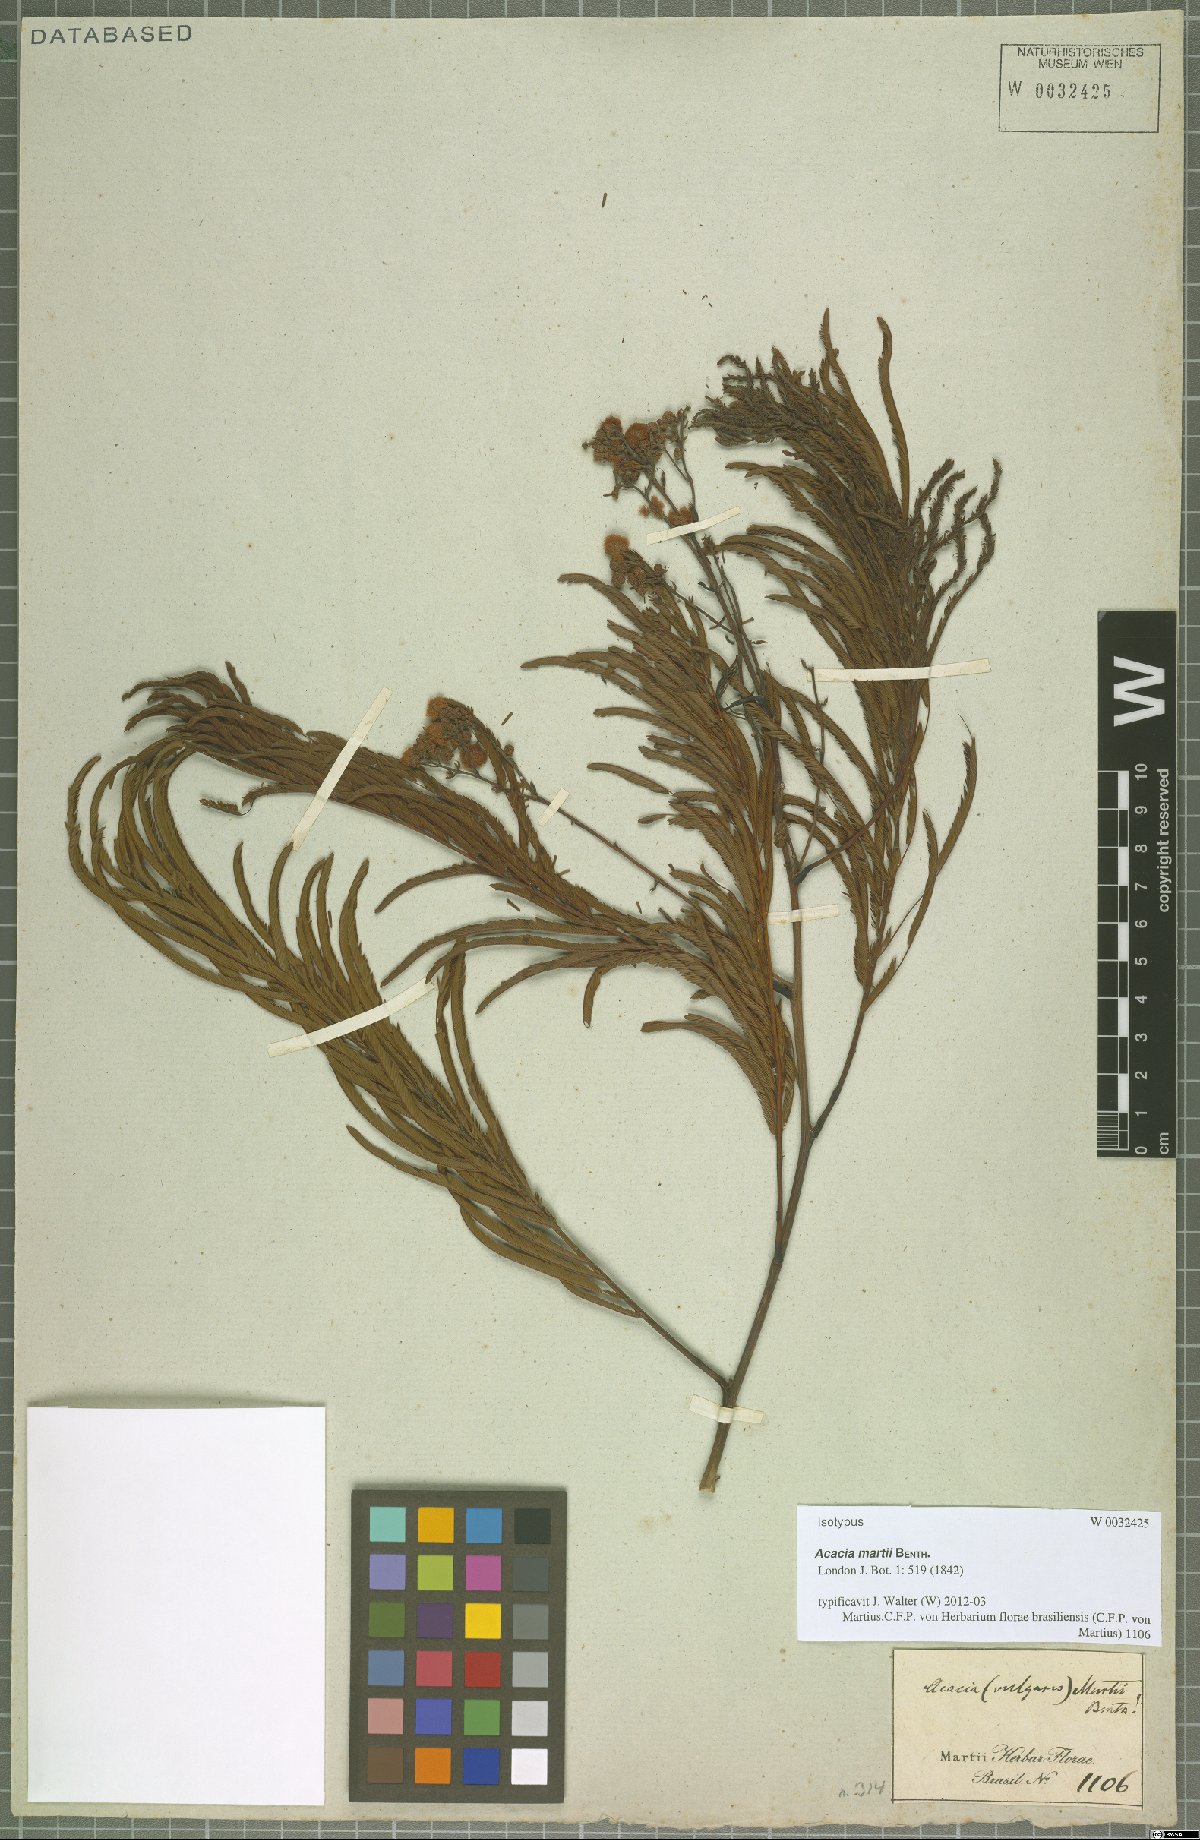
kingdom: Plantae
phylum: Tracheophyta
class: Magnoliopsida
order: Fabales
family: Fabaceae
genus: Senegalia
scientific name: Senegalia martii
